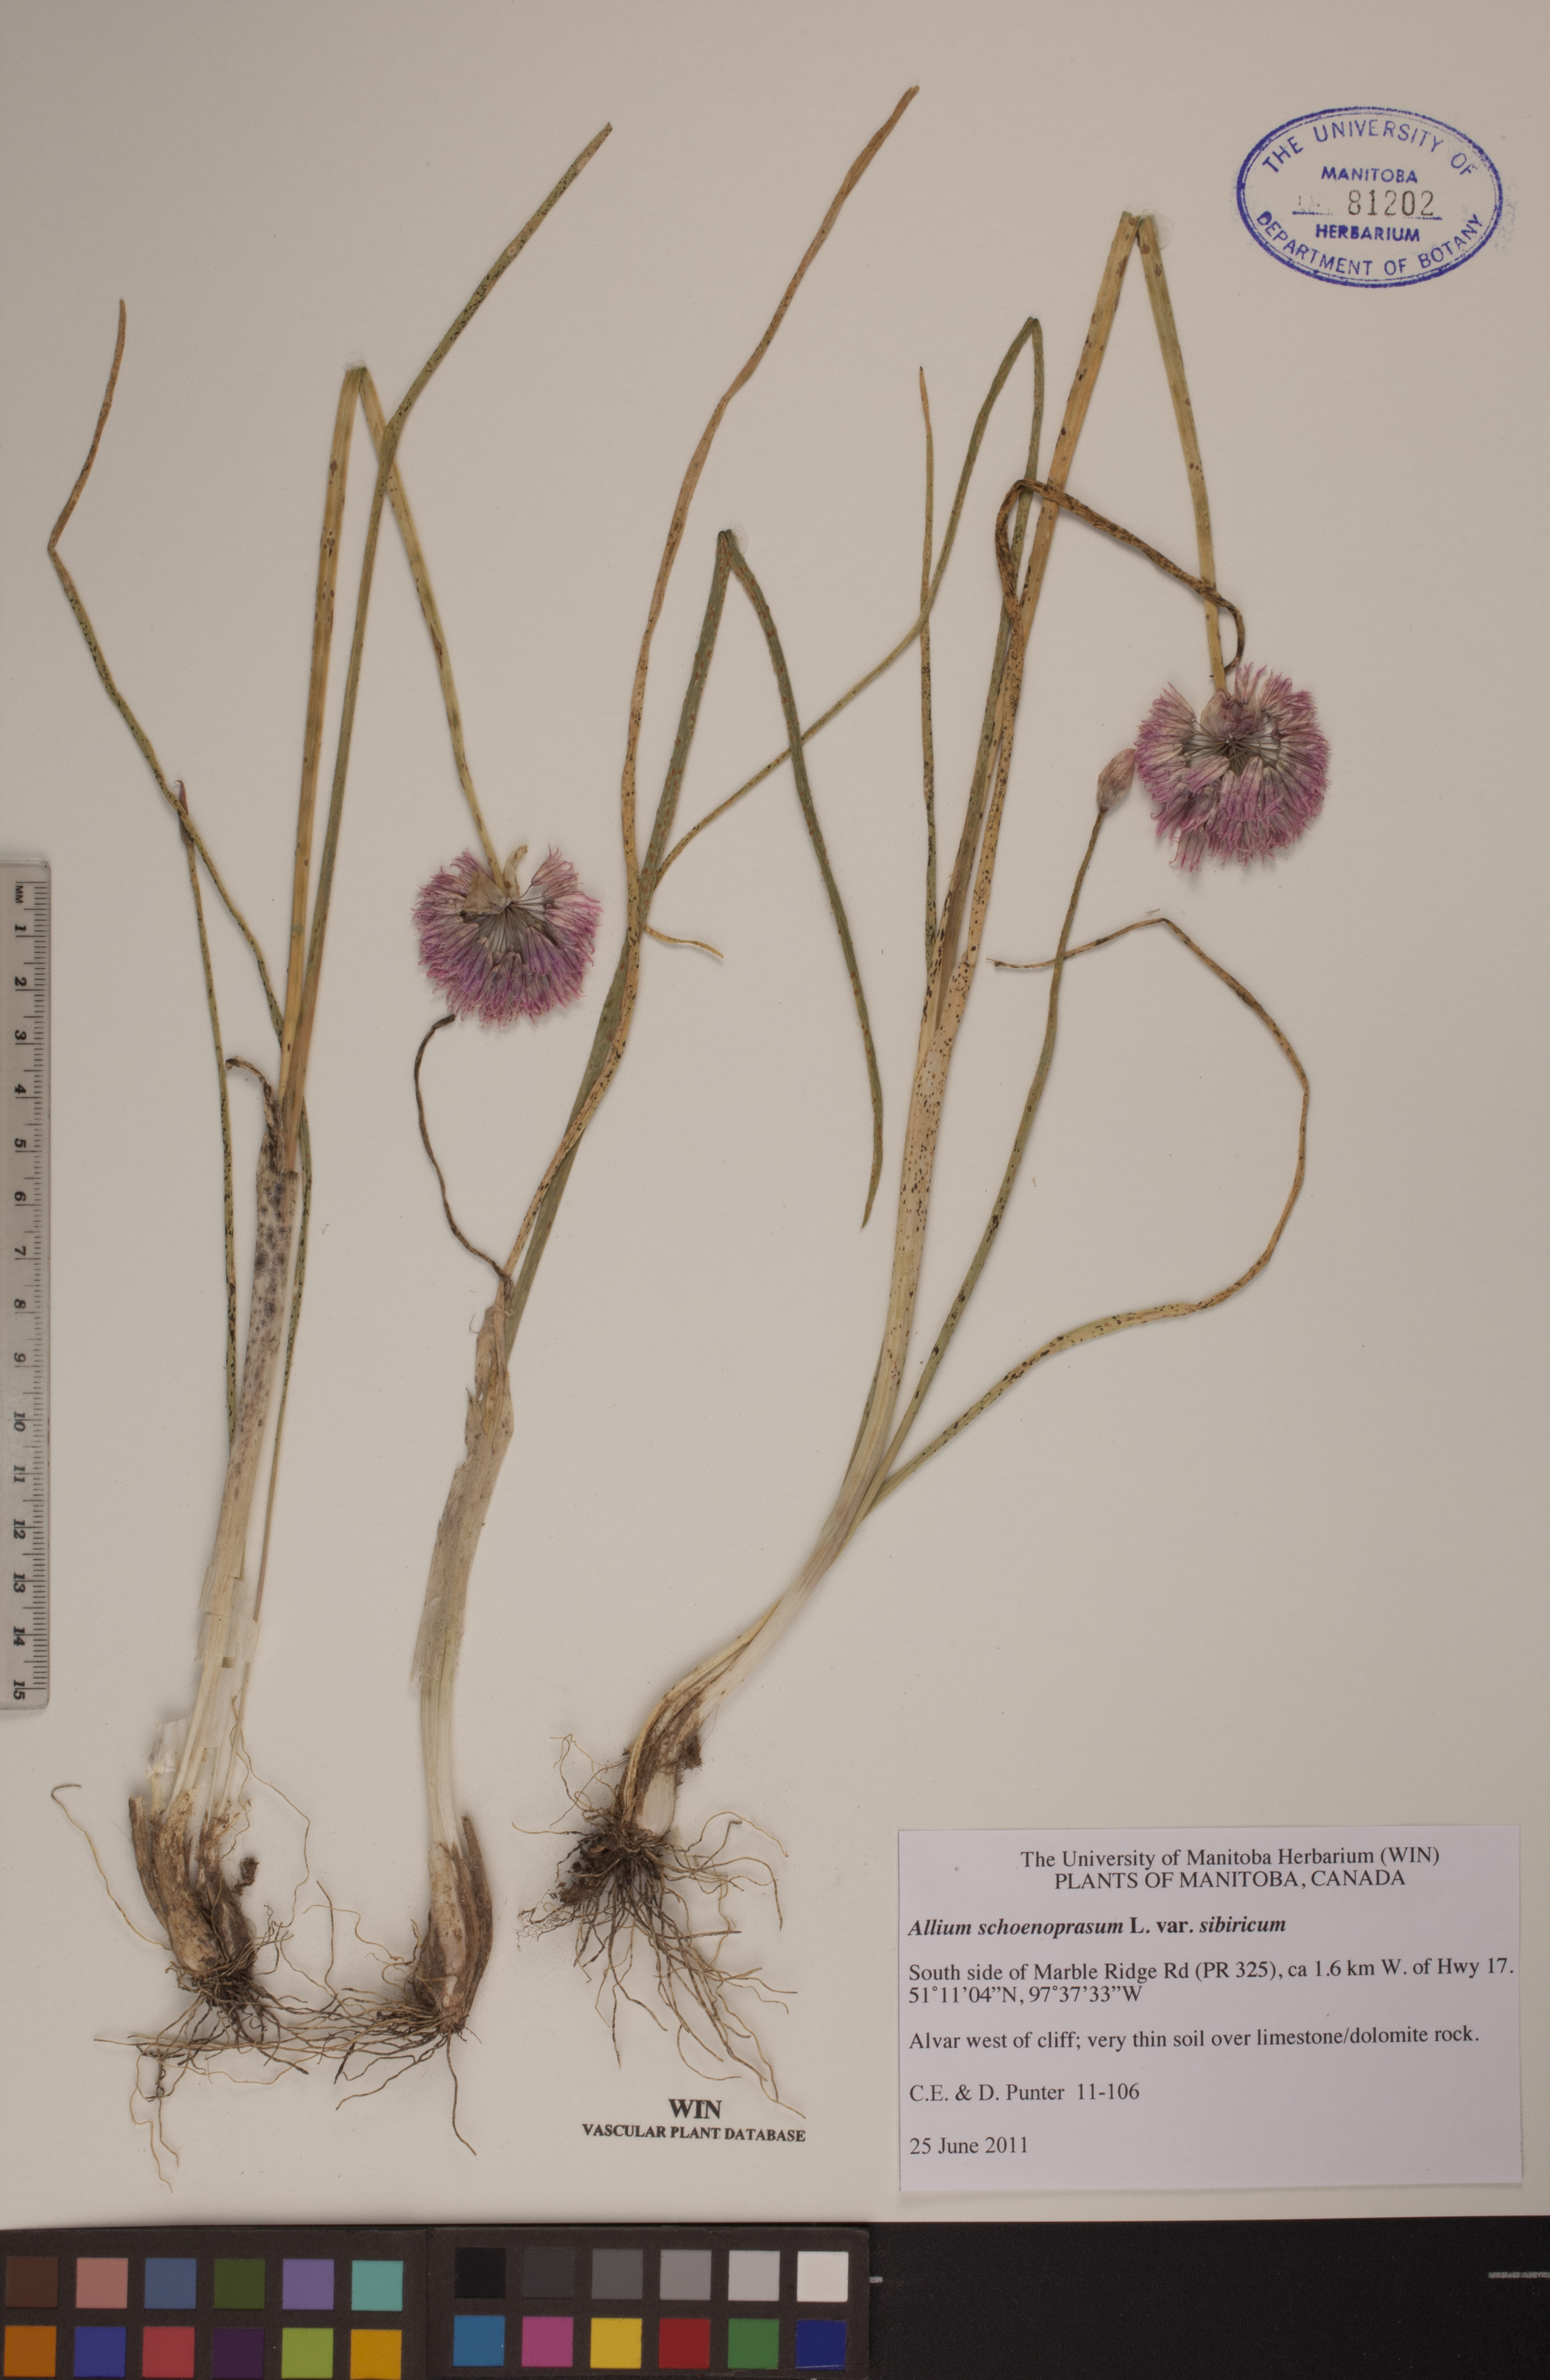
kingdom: Plantae
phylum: Tracheophyta
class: Liliopsida
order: Asparagales
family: Amaryllidaceae
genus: Allium
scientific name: Allium schoenoprasum
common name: Chives
